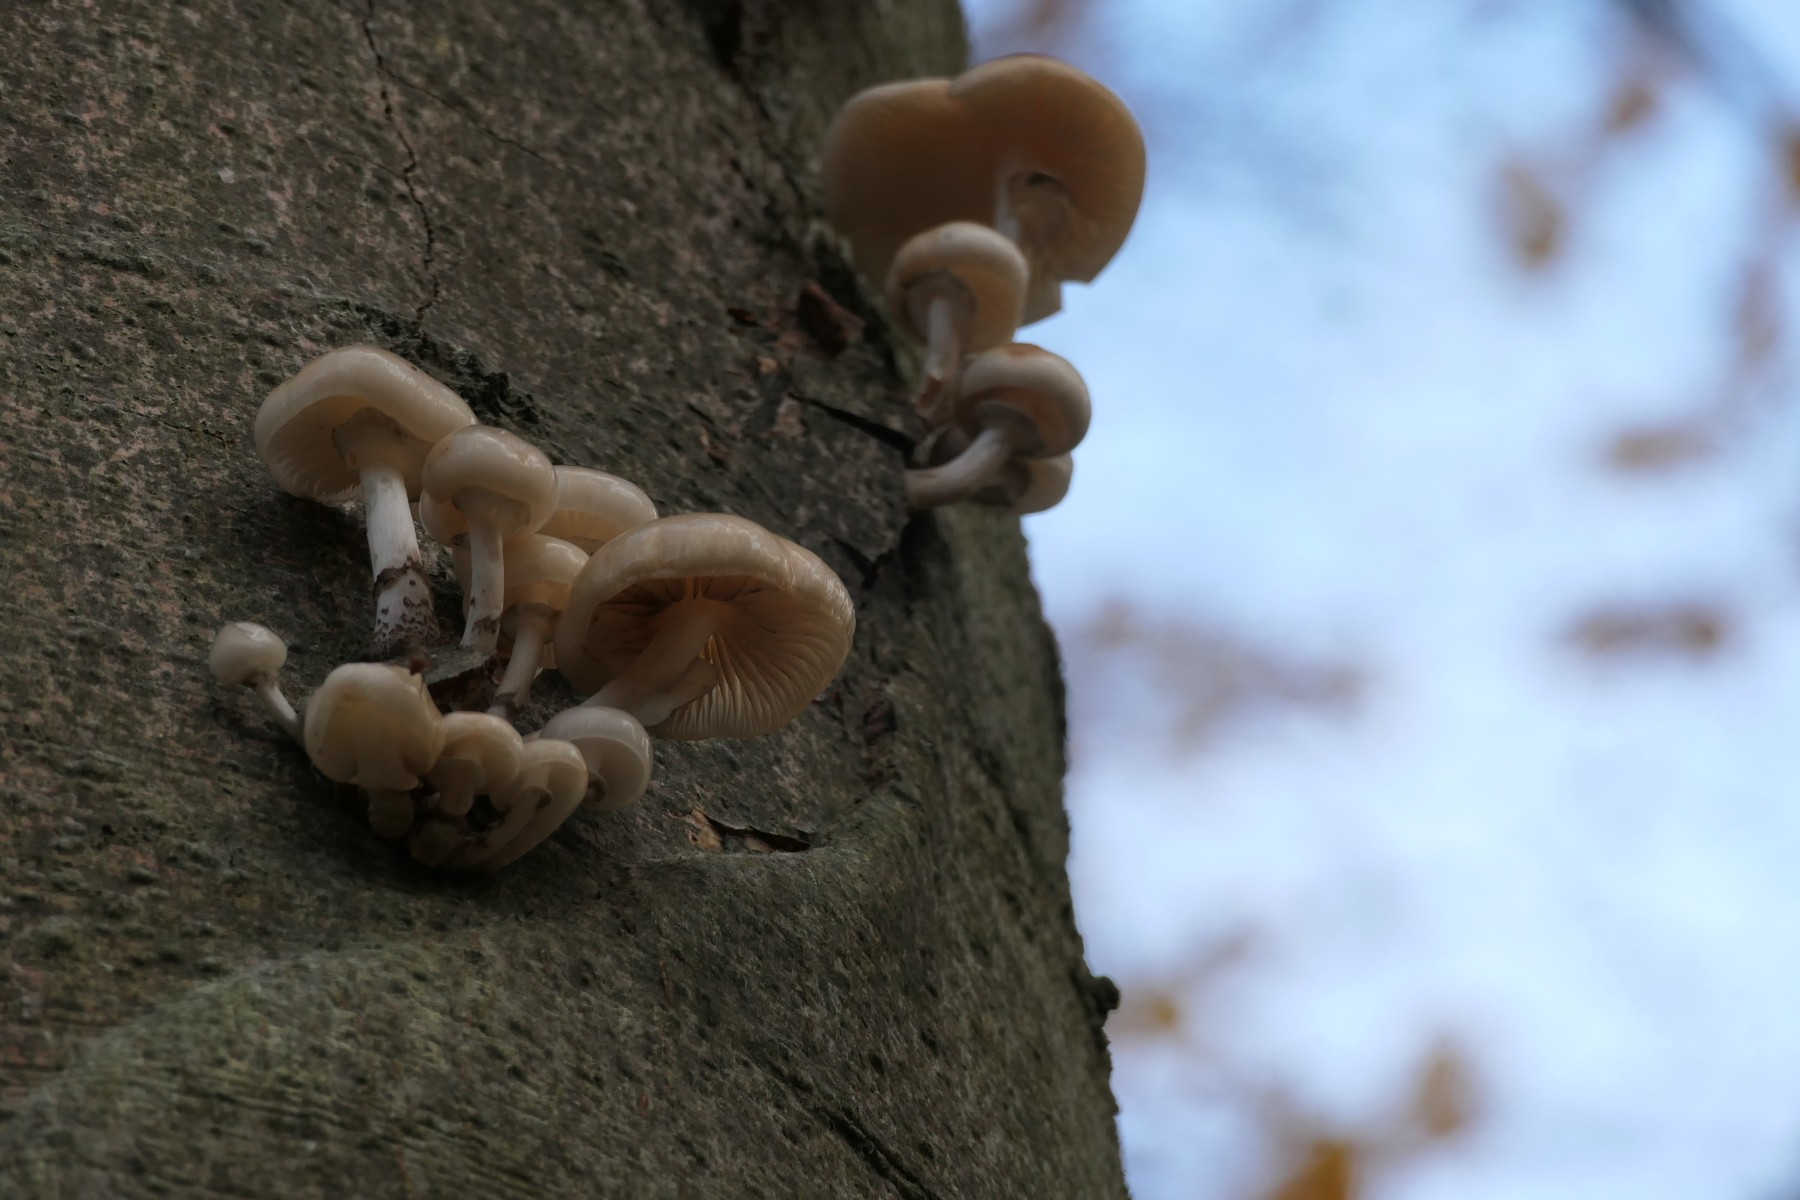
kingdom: Fungi
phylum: Basidiomycota
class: Agaricomycetes
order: Agaricales
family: Physalacriaceae
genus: Mucidula
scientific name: Mucidula mucida
